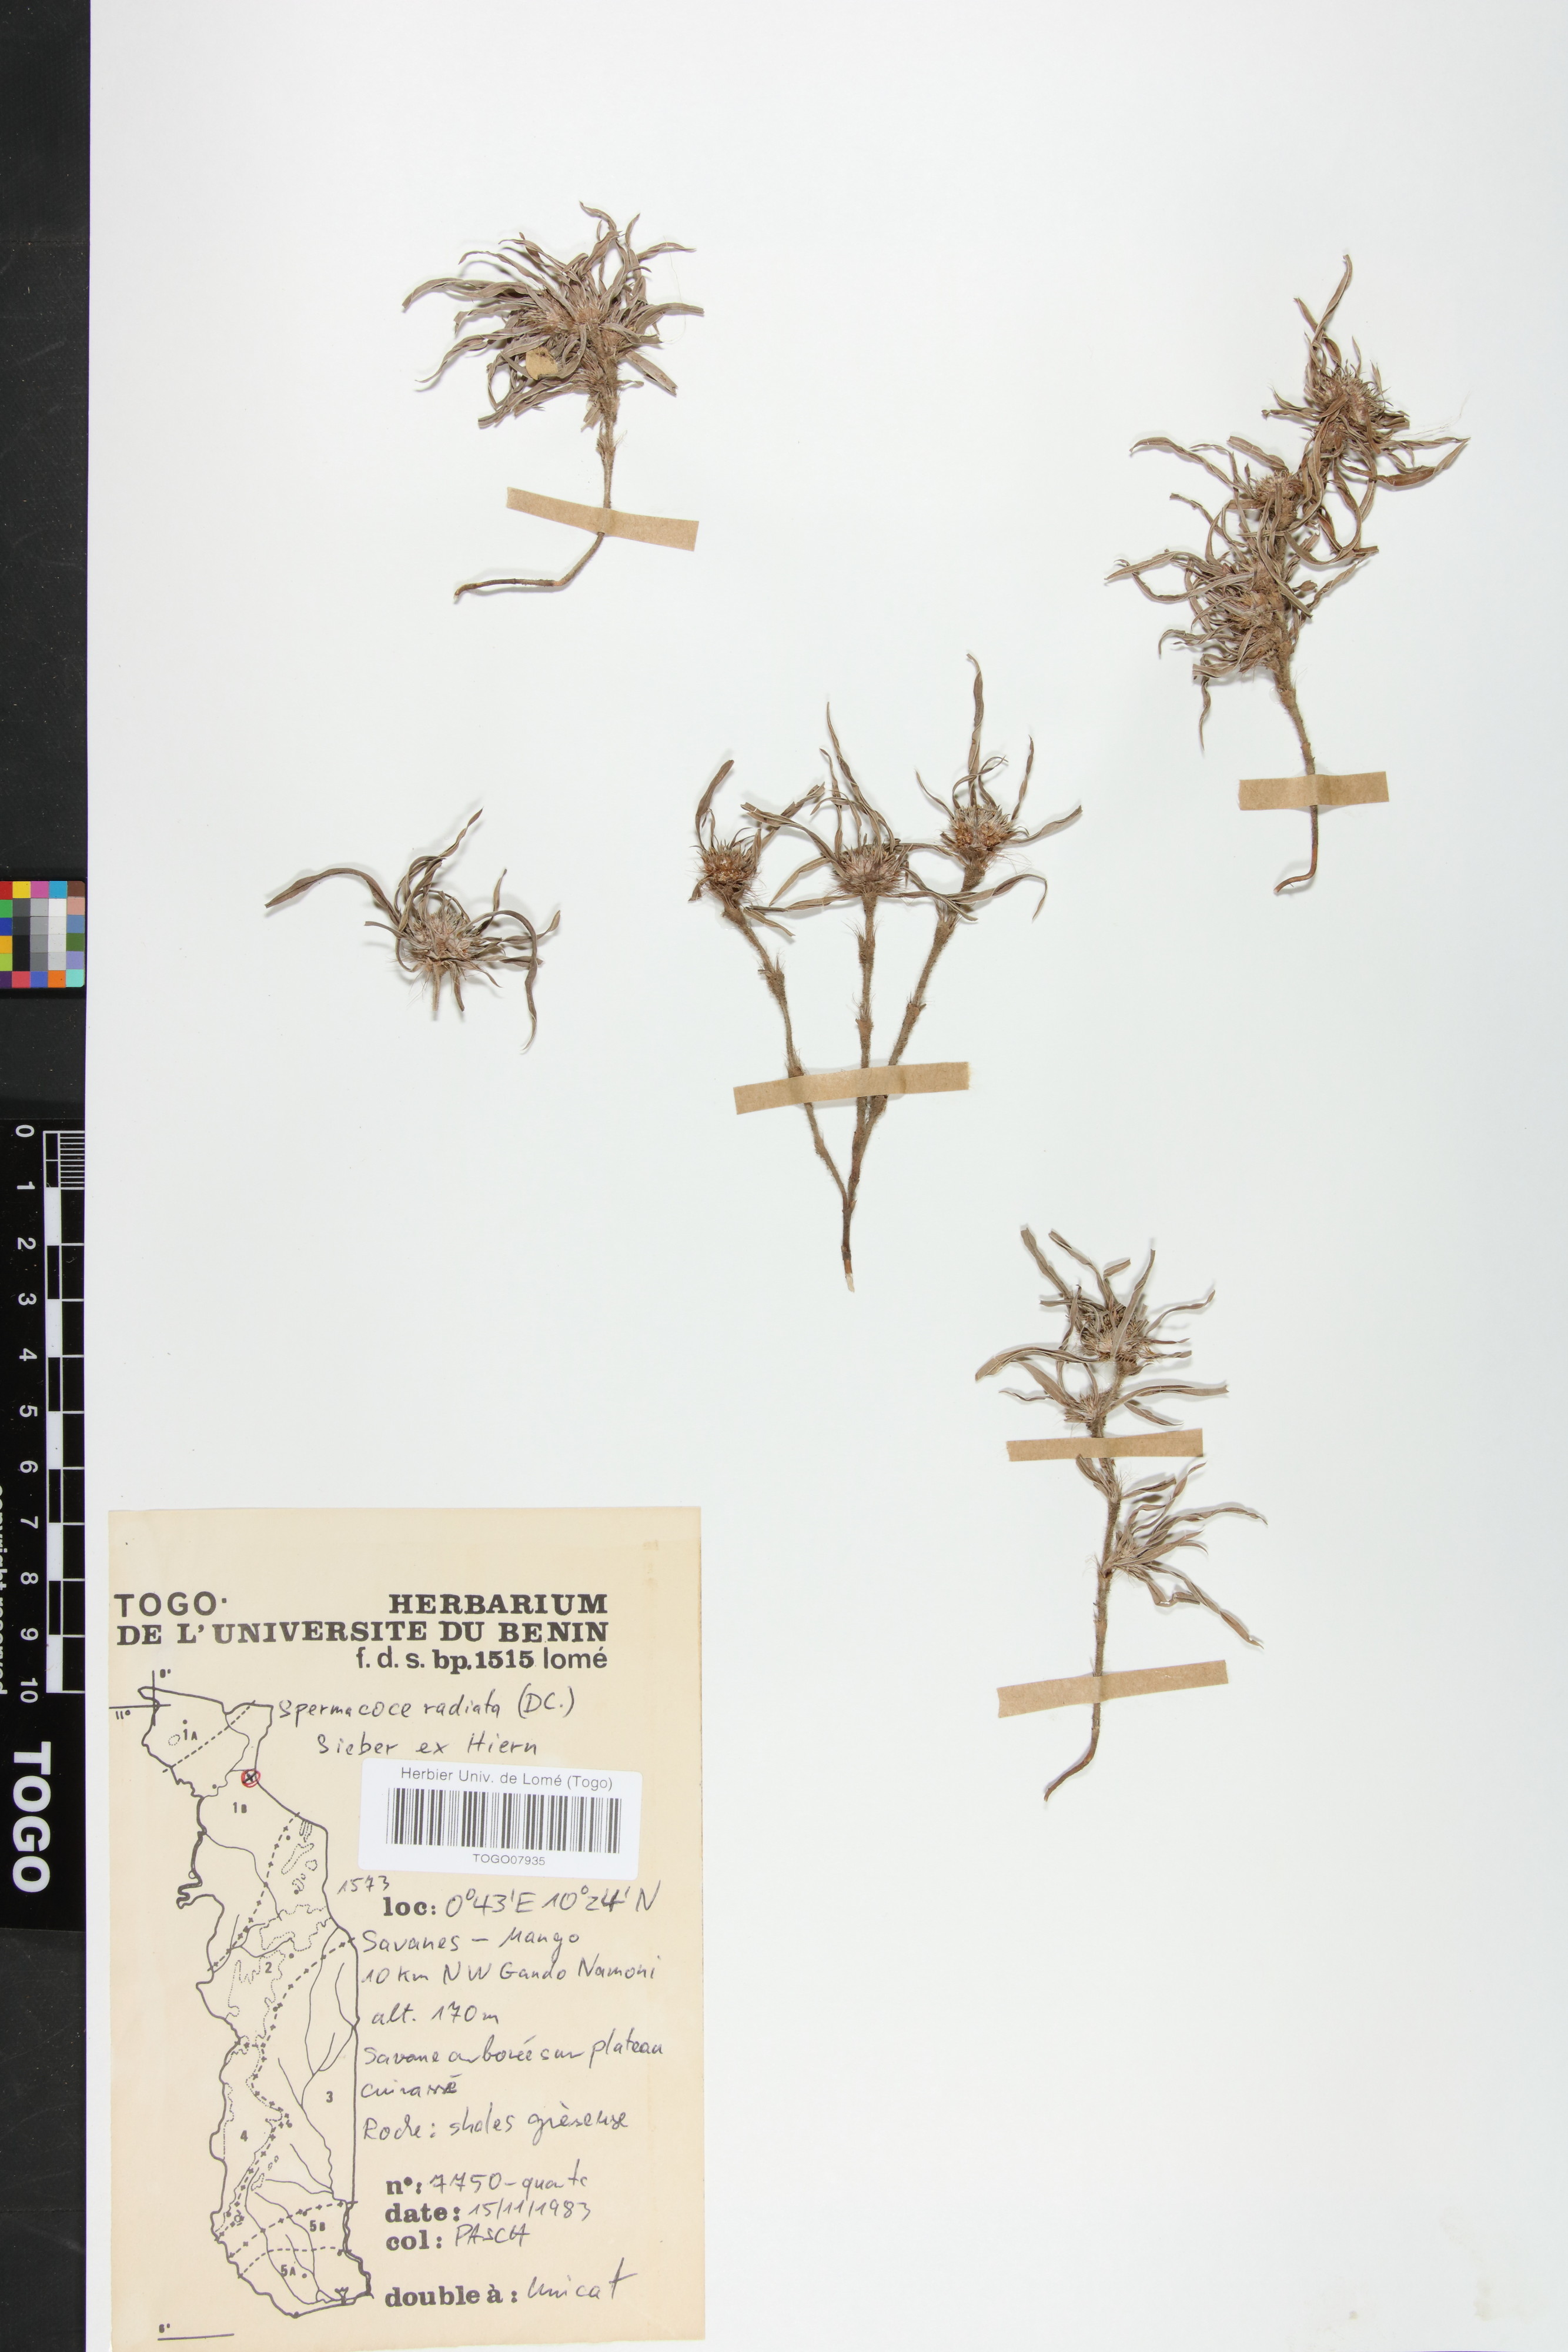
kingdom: Plantae
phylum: Tracheophyta
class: Magnoliopsida
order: Gentianales
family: Rubiaceae
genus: Spermacoce
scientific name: Spermacoce radiata
